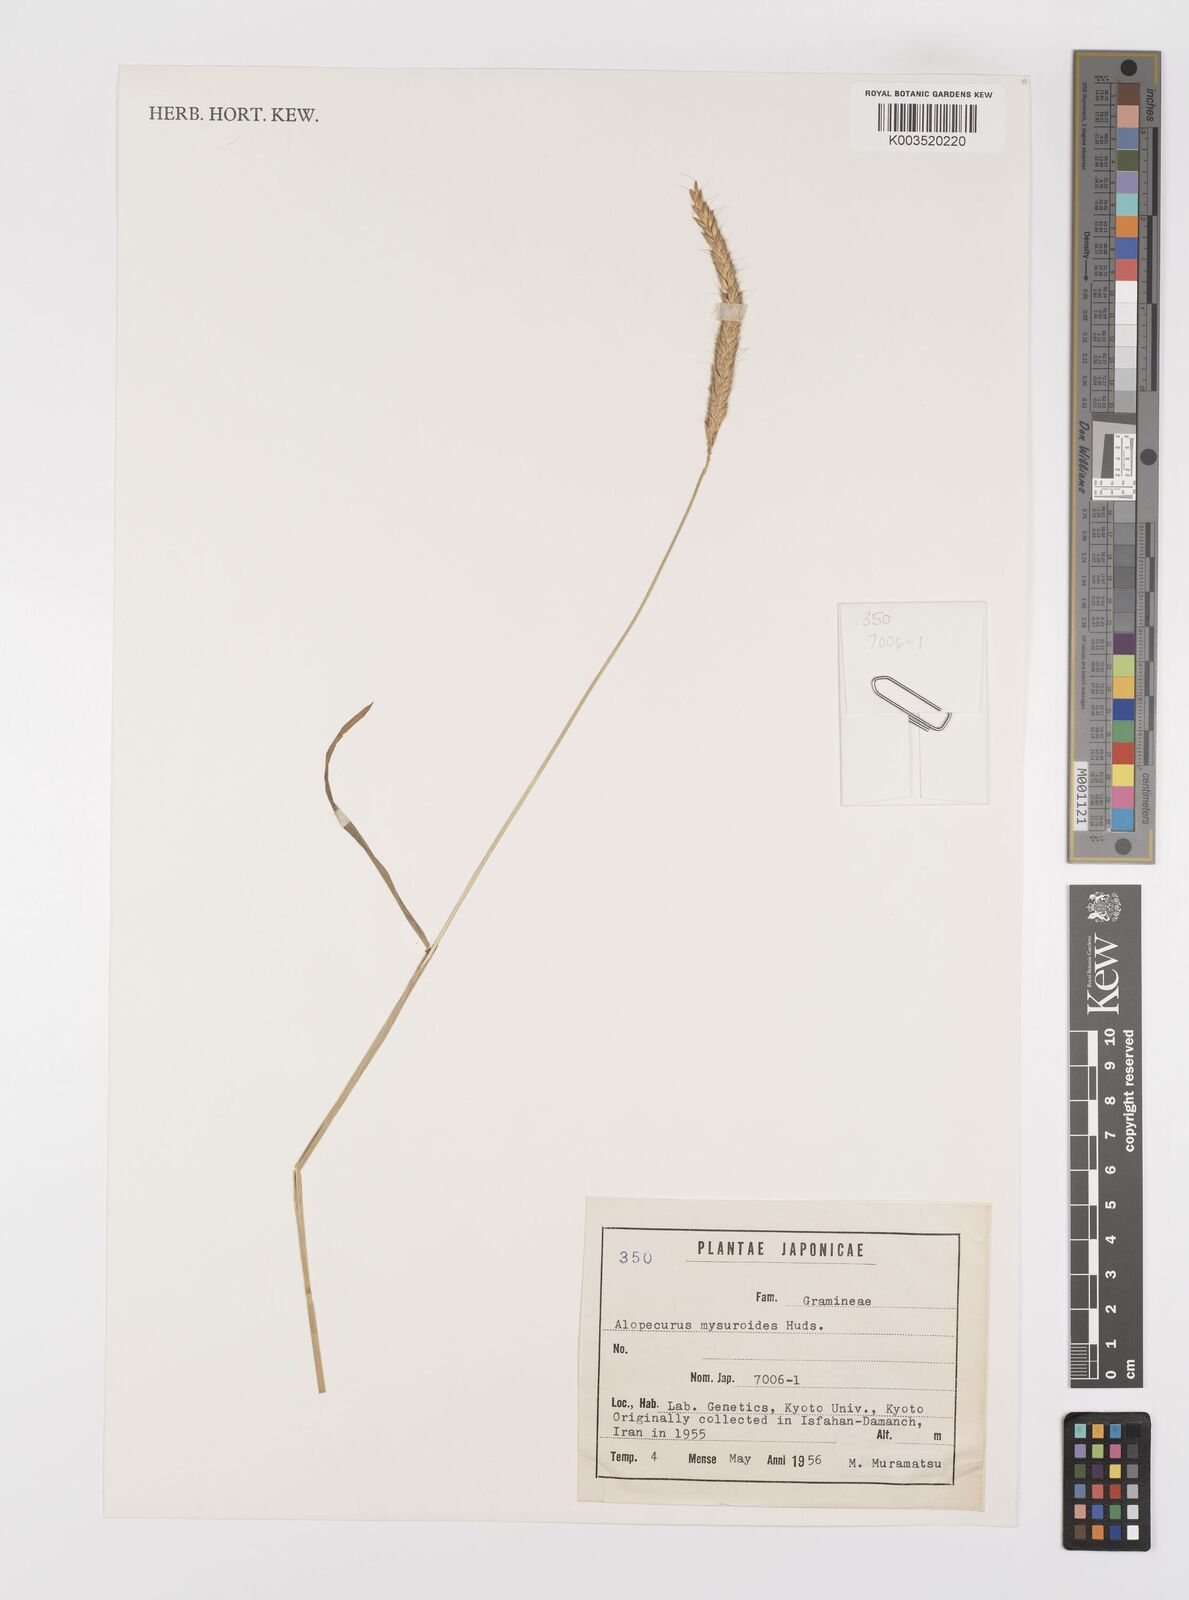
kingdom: Plantae
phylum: Tracheophyta
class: Liliopsida
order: Poales
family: Poaceae
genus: Alopecurus
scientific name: Alopecurus myosuroides
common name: Black-grass
